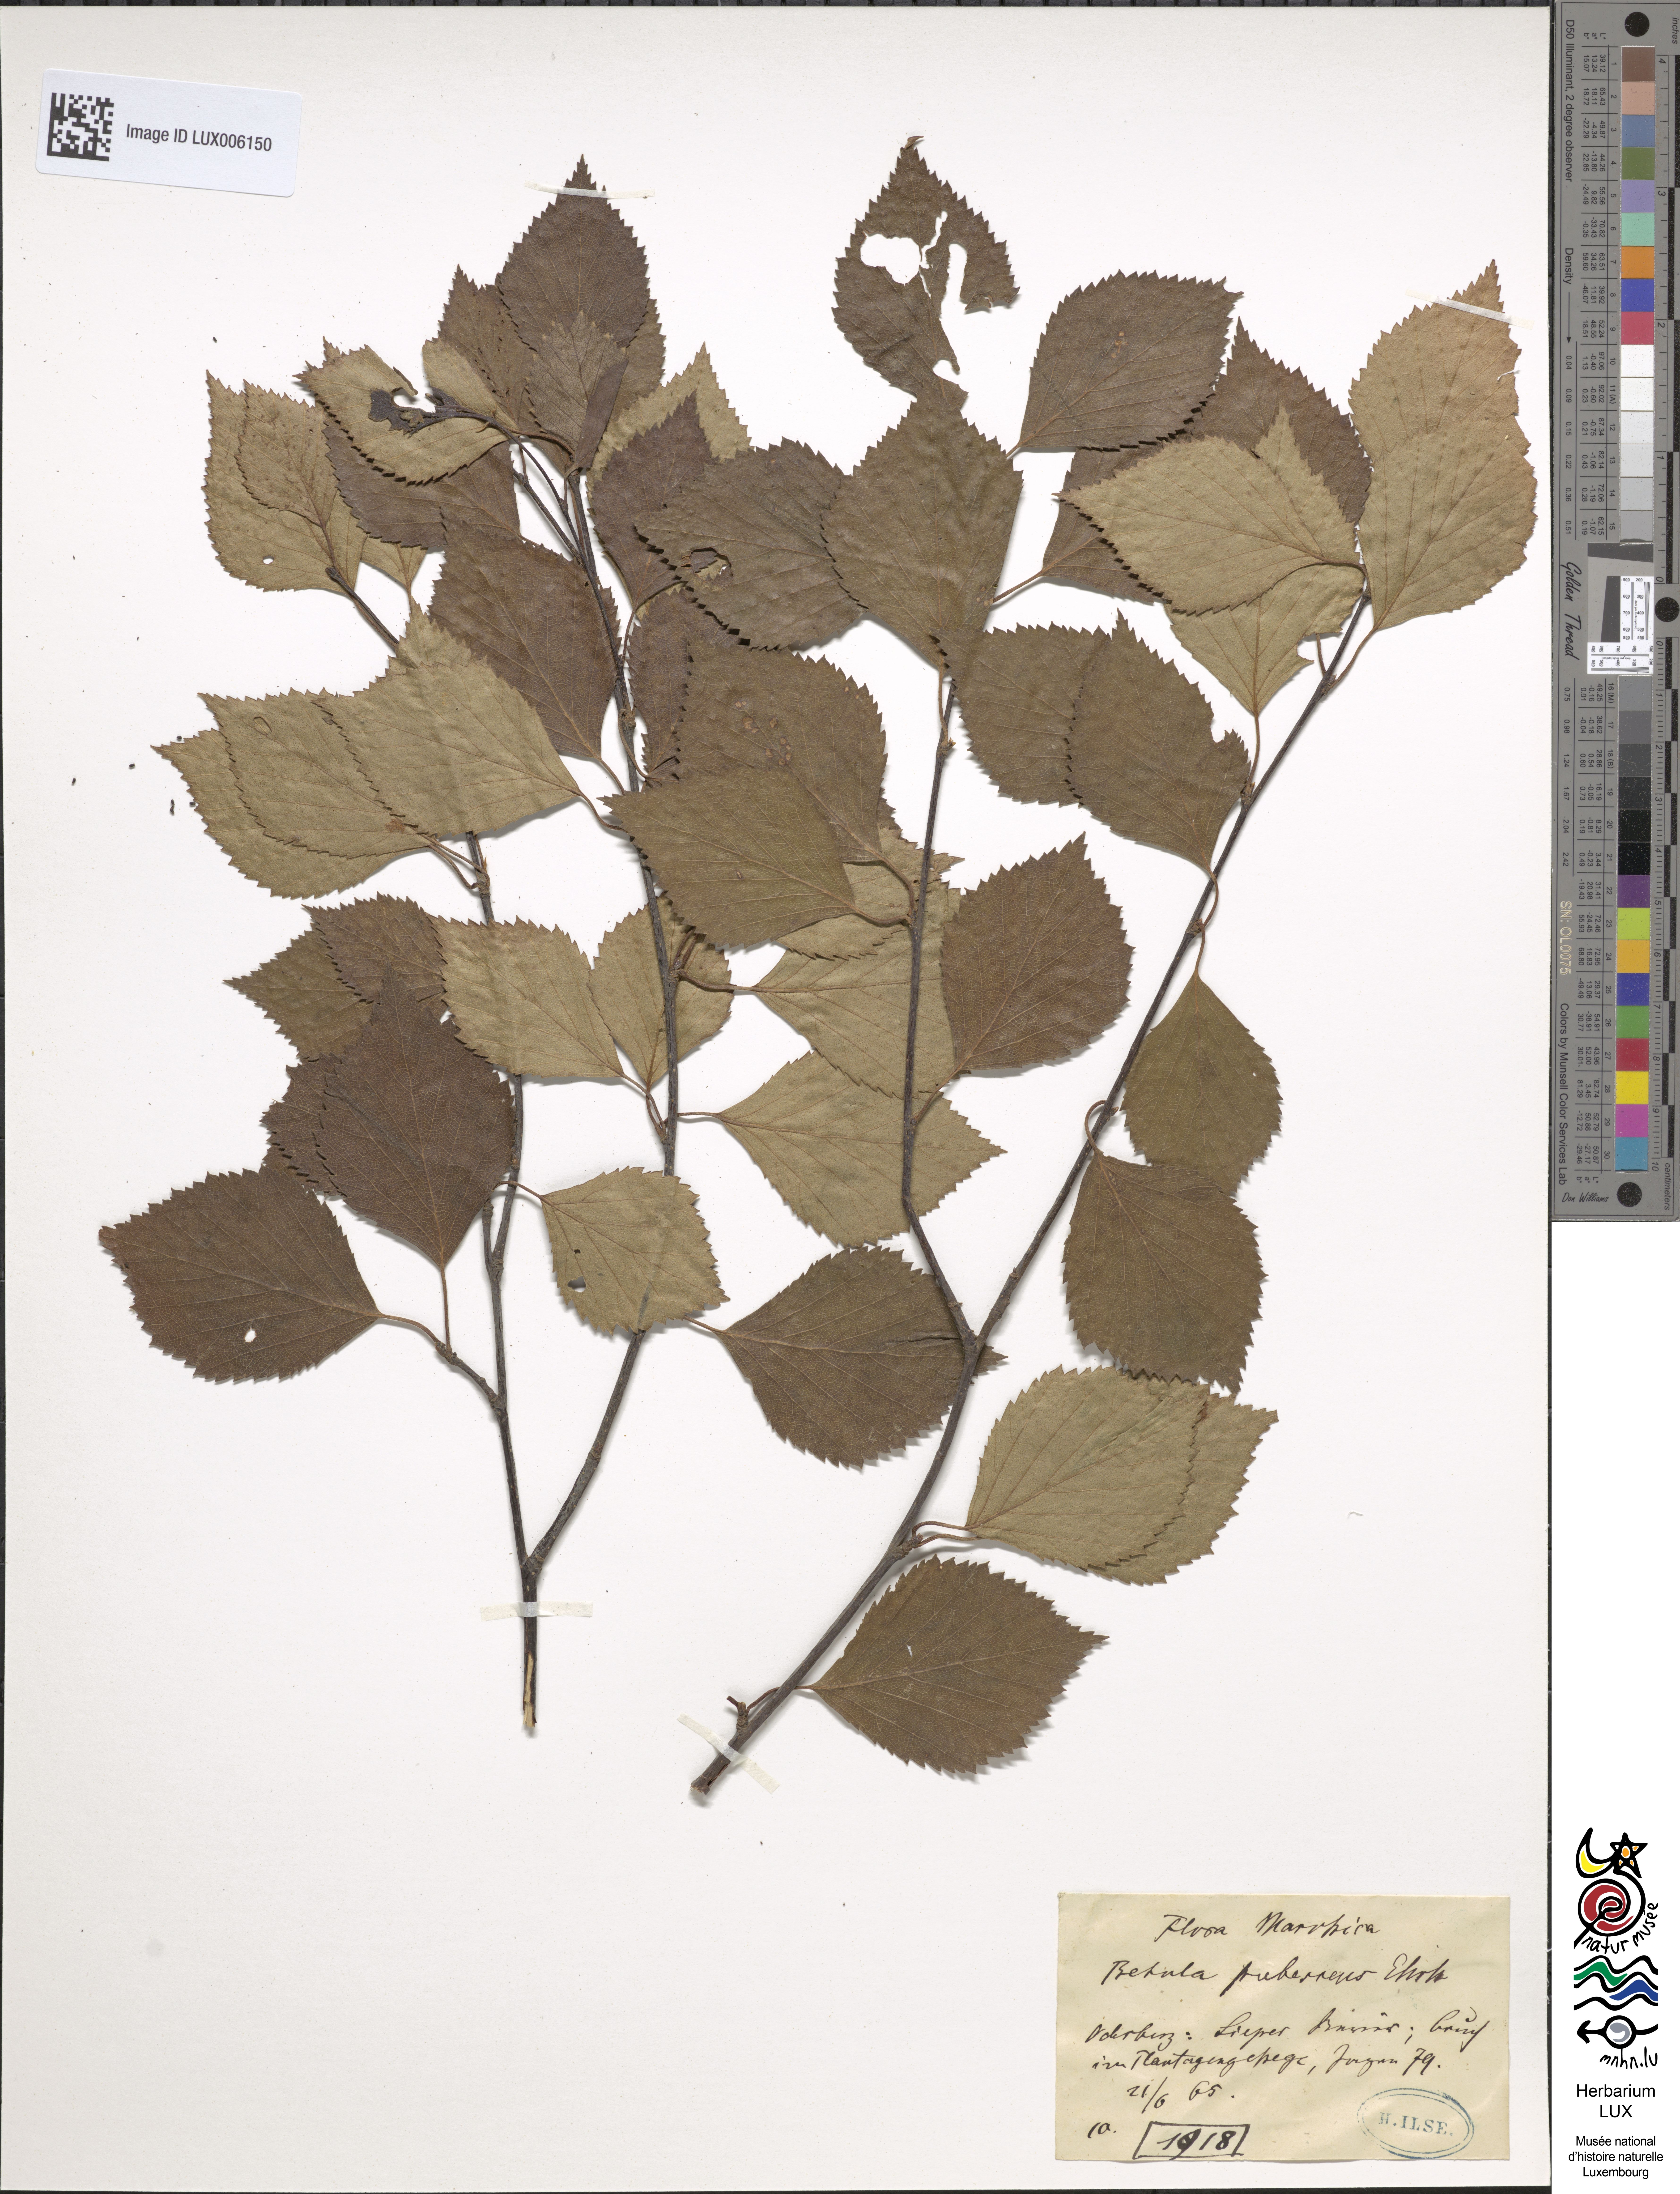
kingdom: Plantae
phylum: Tracheophyta
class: Magnoliopsida
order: Fagales
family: Betulaceae
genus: Betula
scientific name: Betula pubescens
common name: Downy birch
